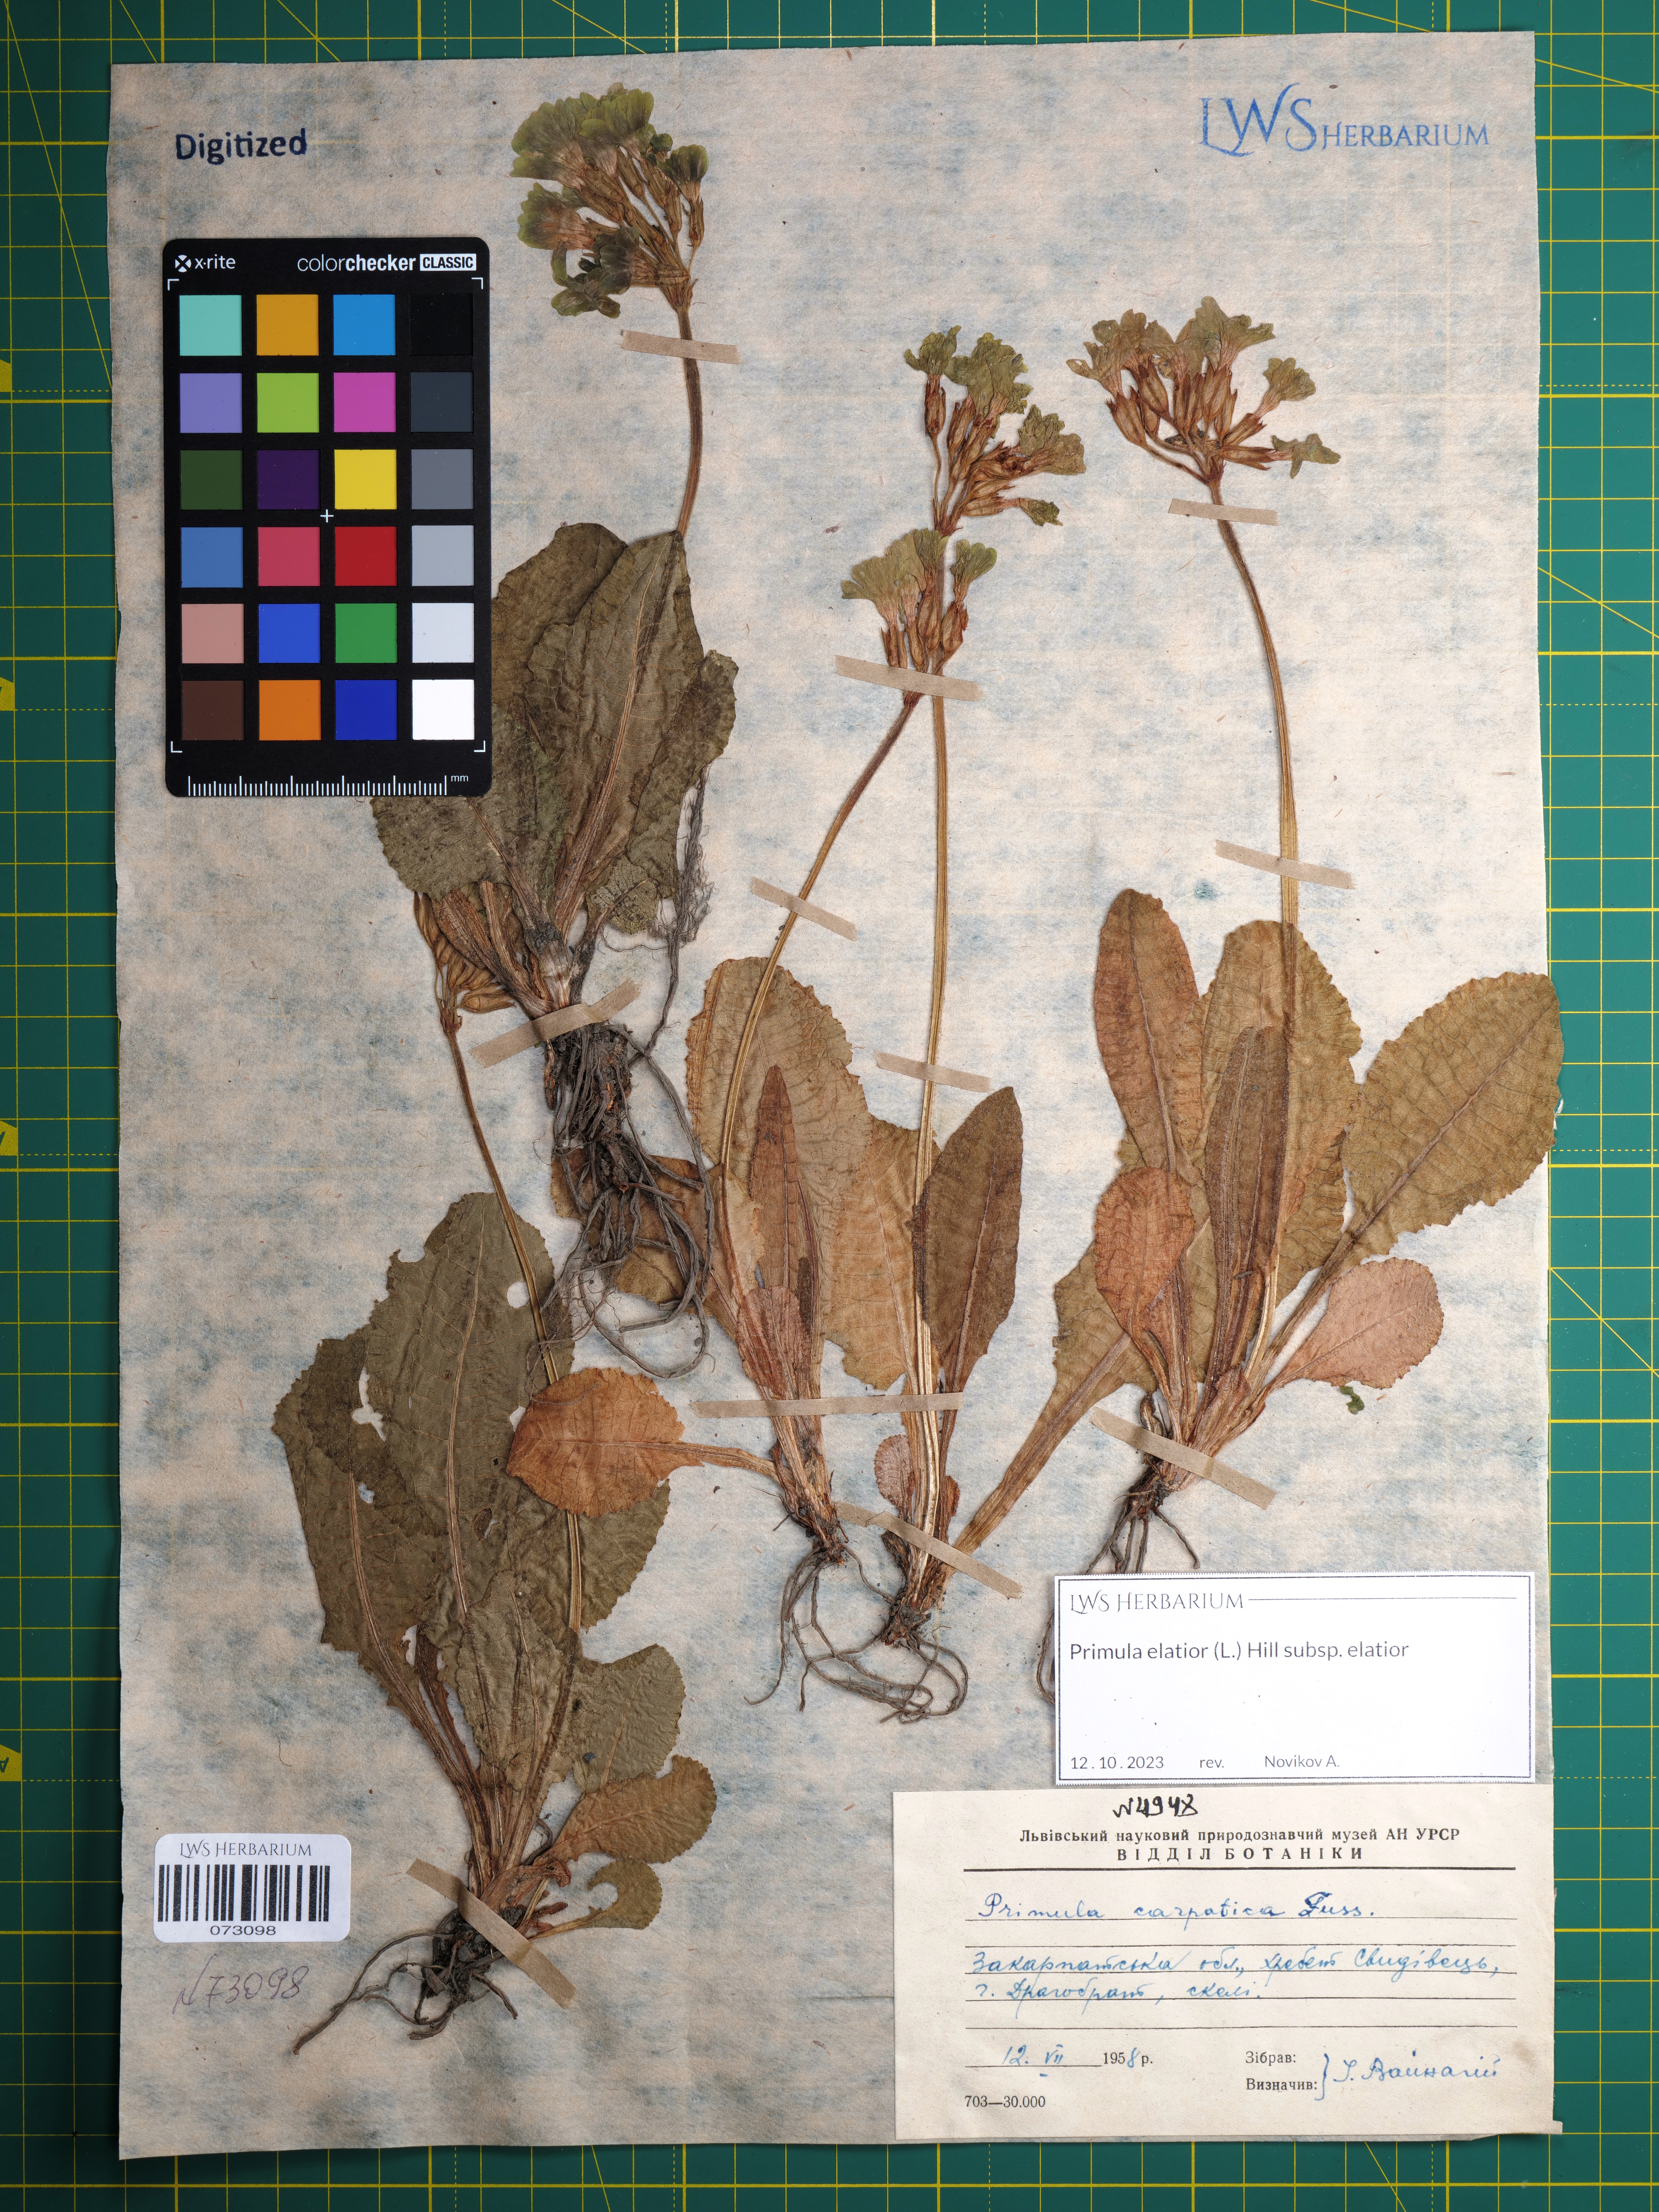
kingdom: Plantae
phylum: Tracheophyta
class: Magnoliopsida
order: Ericales
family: Primulaceae
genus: Primula
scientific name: Primula elatior
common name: Oxlip
